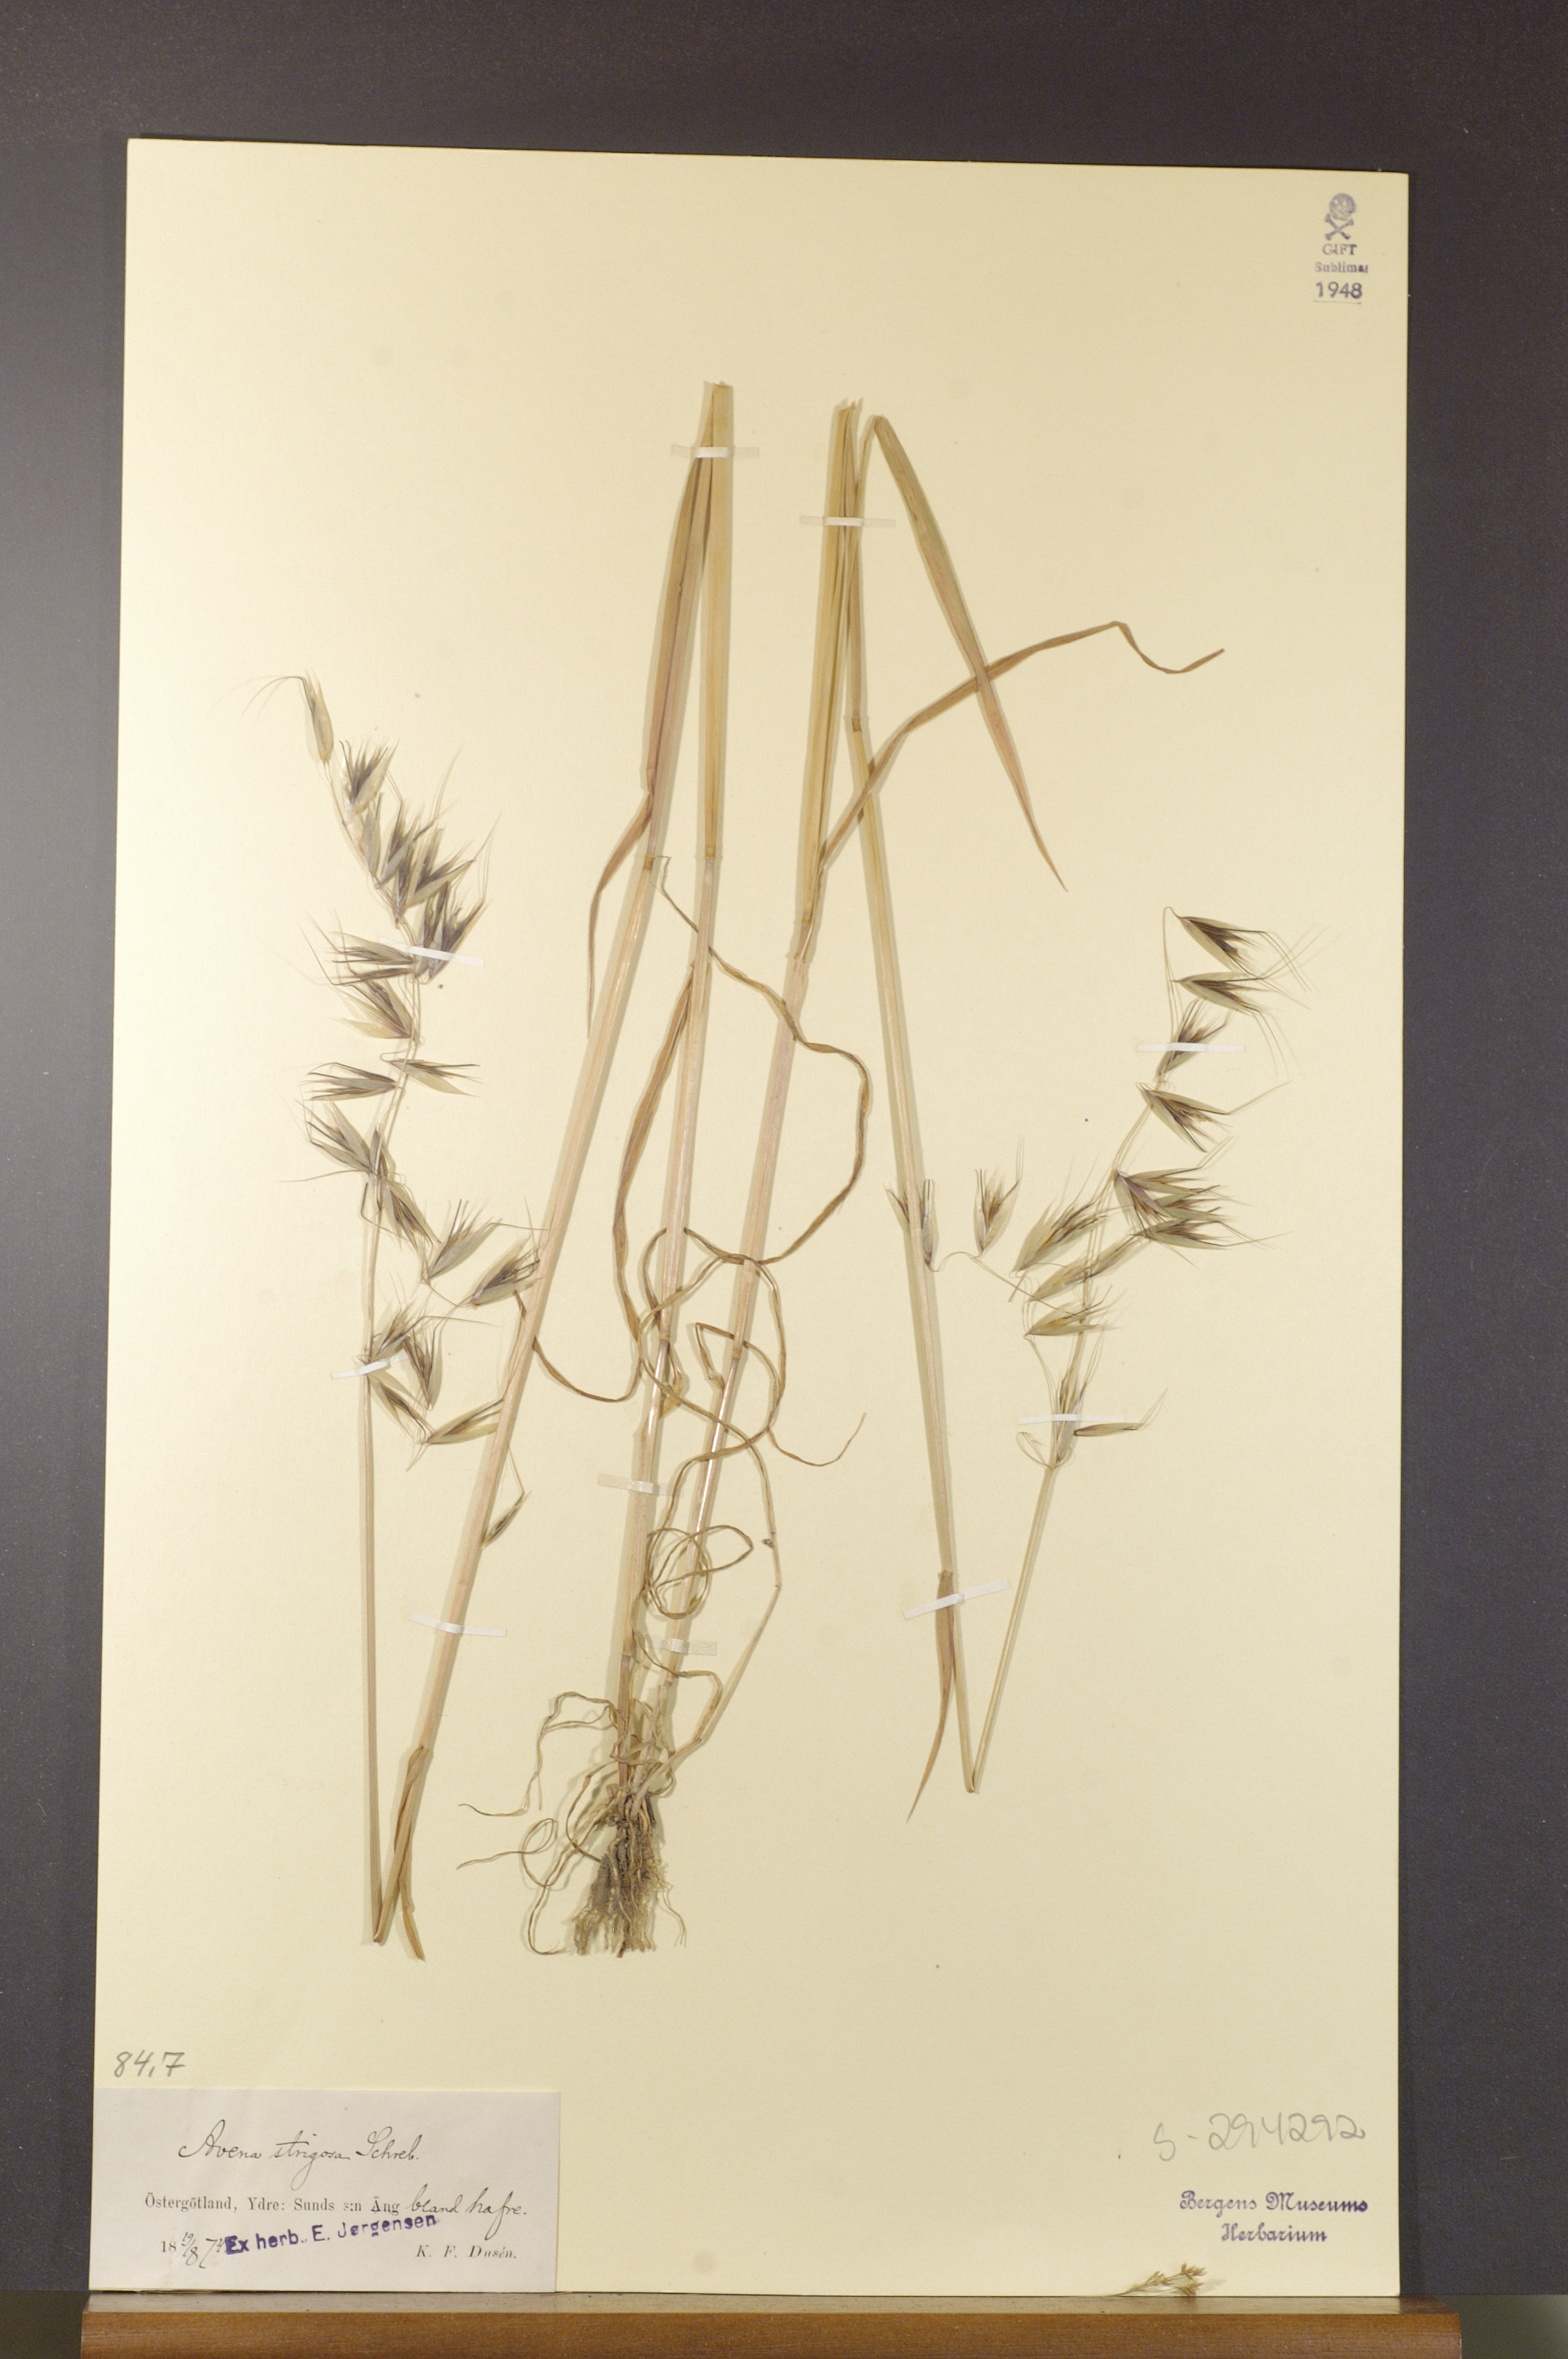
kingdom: Plantae
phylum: Tracheophyta
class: Liliopsida
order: Poales
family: Poaceae
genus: Avena
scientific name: Avena strigosa
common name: Bristle oat
